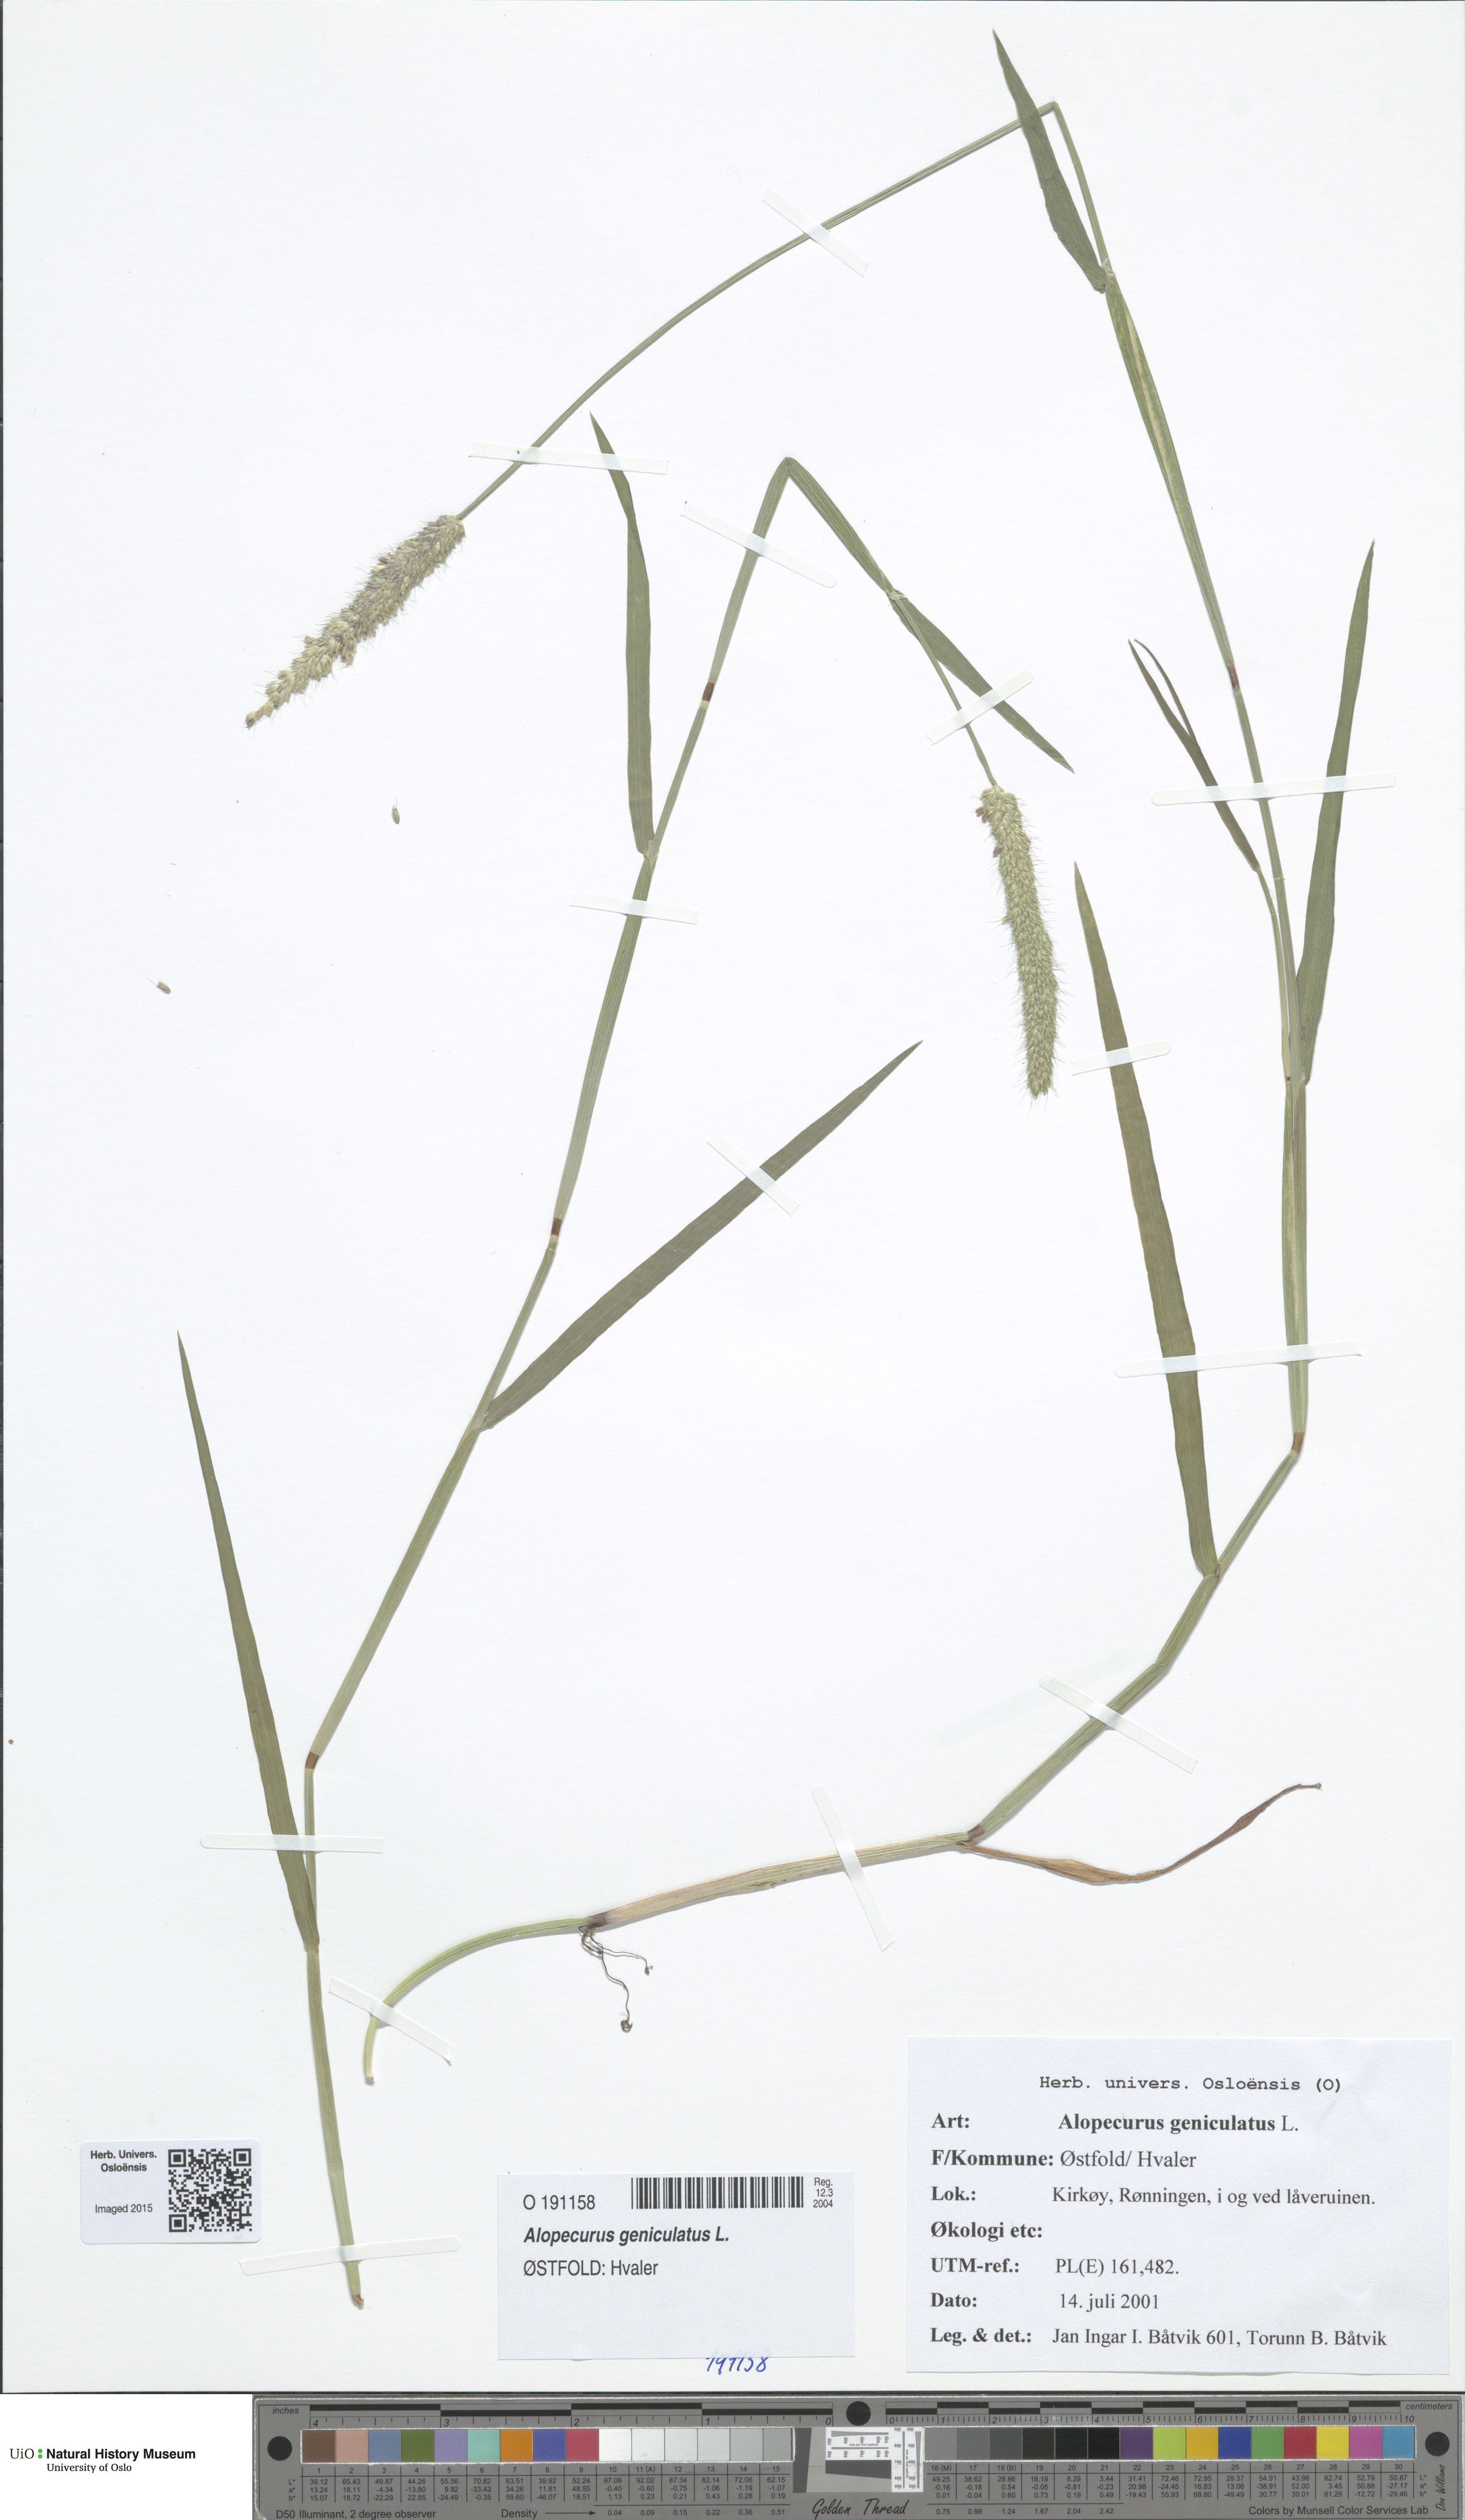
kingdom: Plantae
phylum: Tracheophyta
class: Liliopsida
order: Poales
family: Poaceae
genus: Alopecurus
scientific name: Alopecurus geniculatus
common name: Water foxtail
